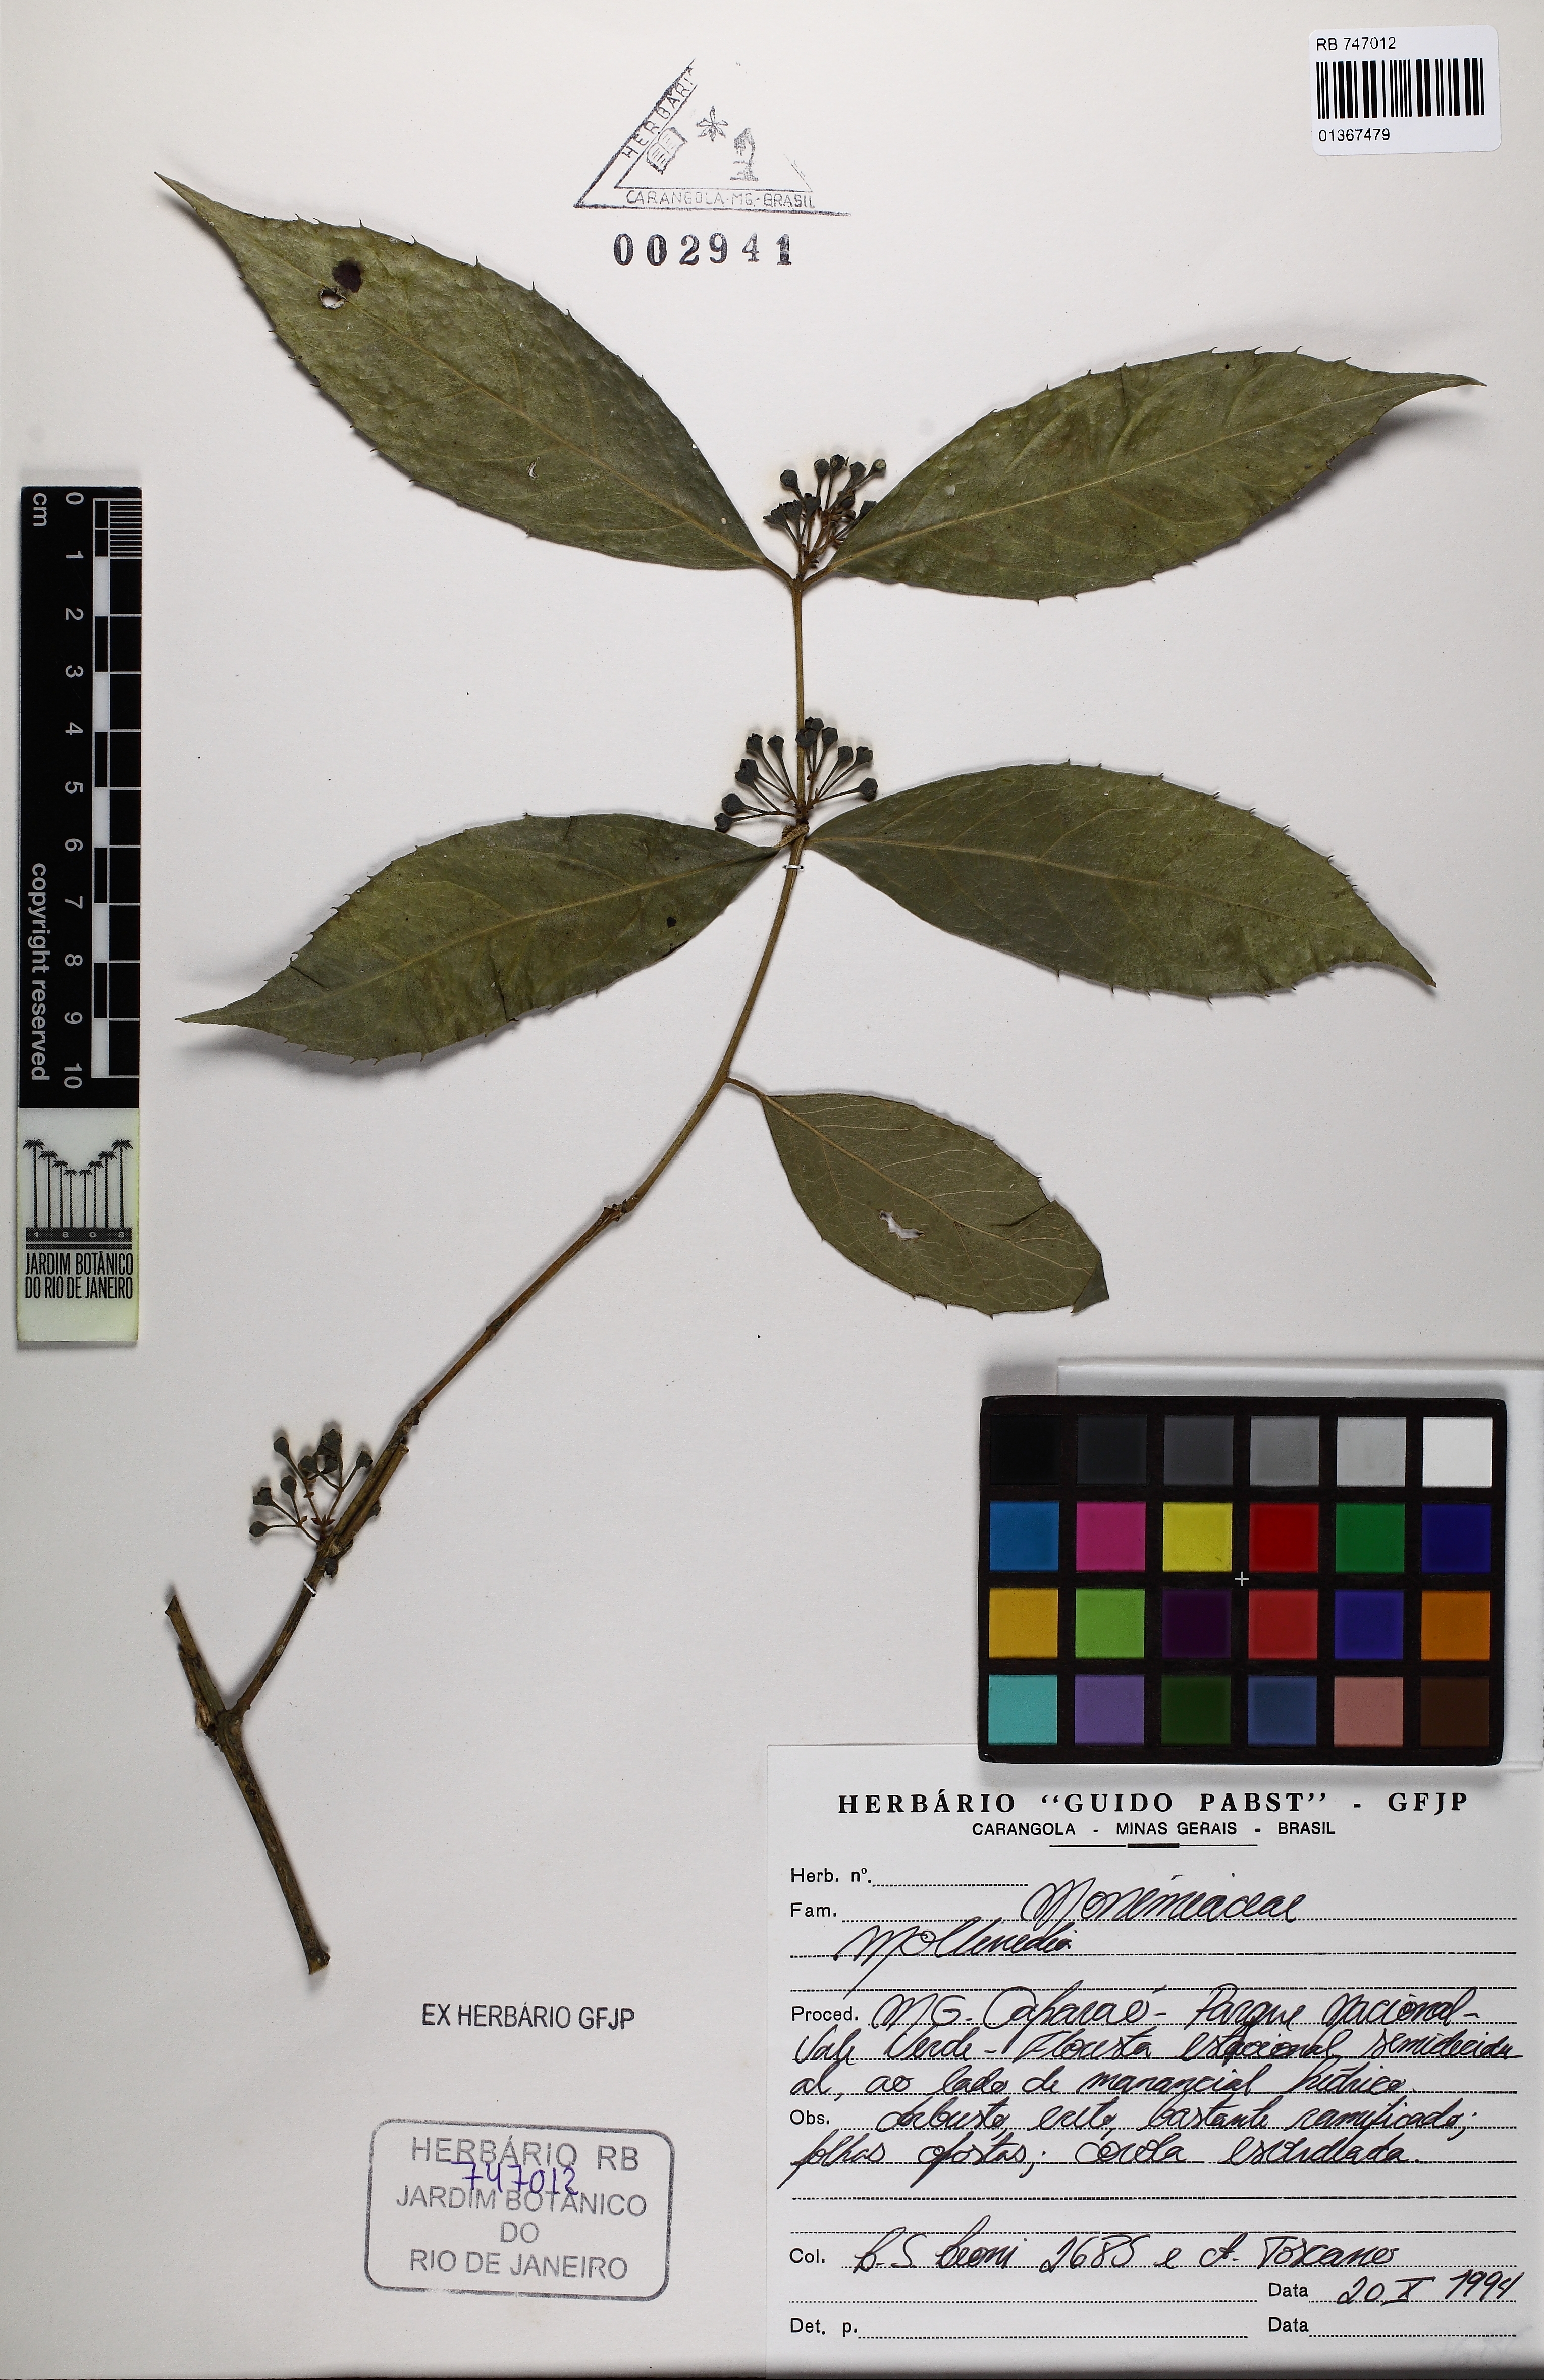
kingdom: Plantae
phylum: Tracheophyta
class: Magnoliopsida
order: Laurales
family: Monimiaceae
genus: Mollinedia
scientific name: Mollinedia umbellata
